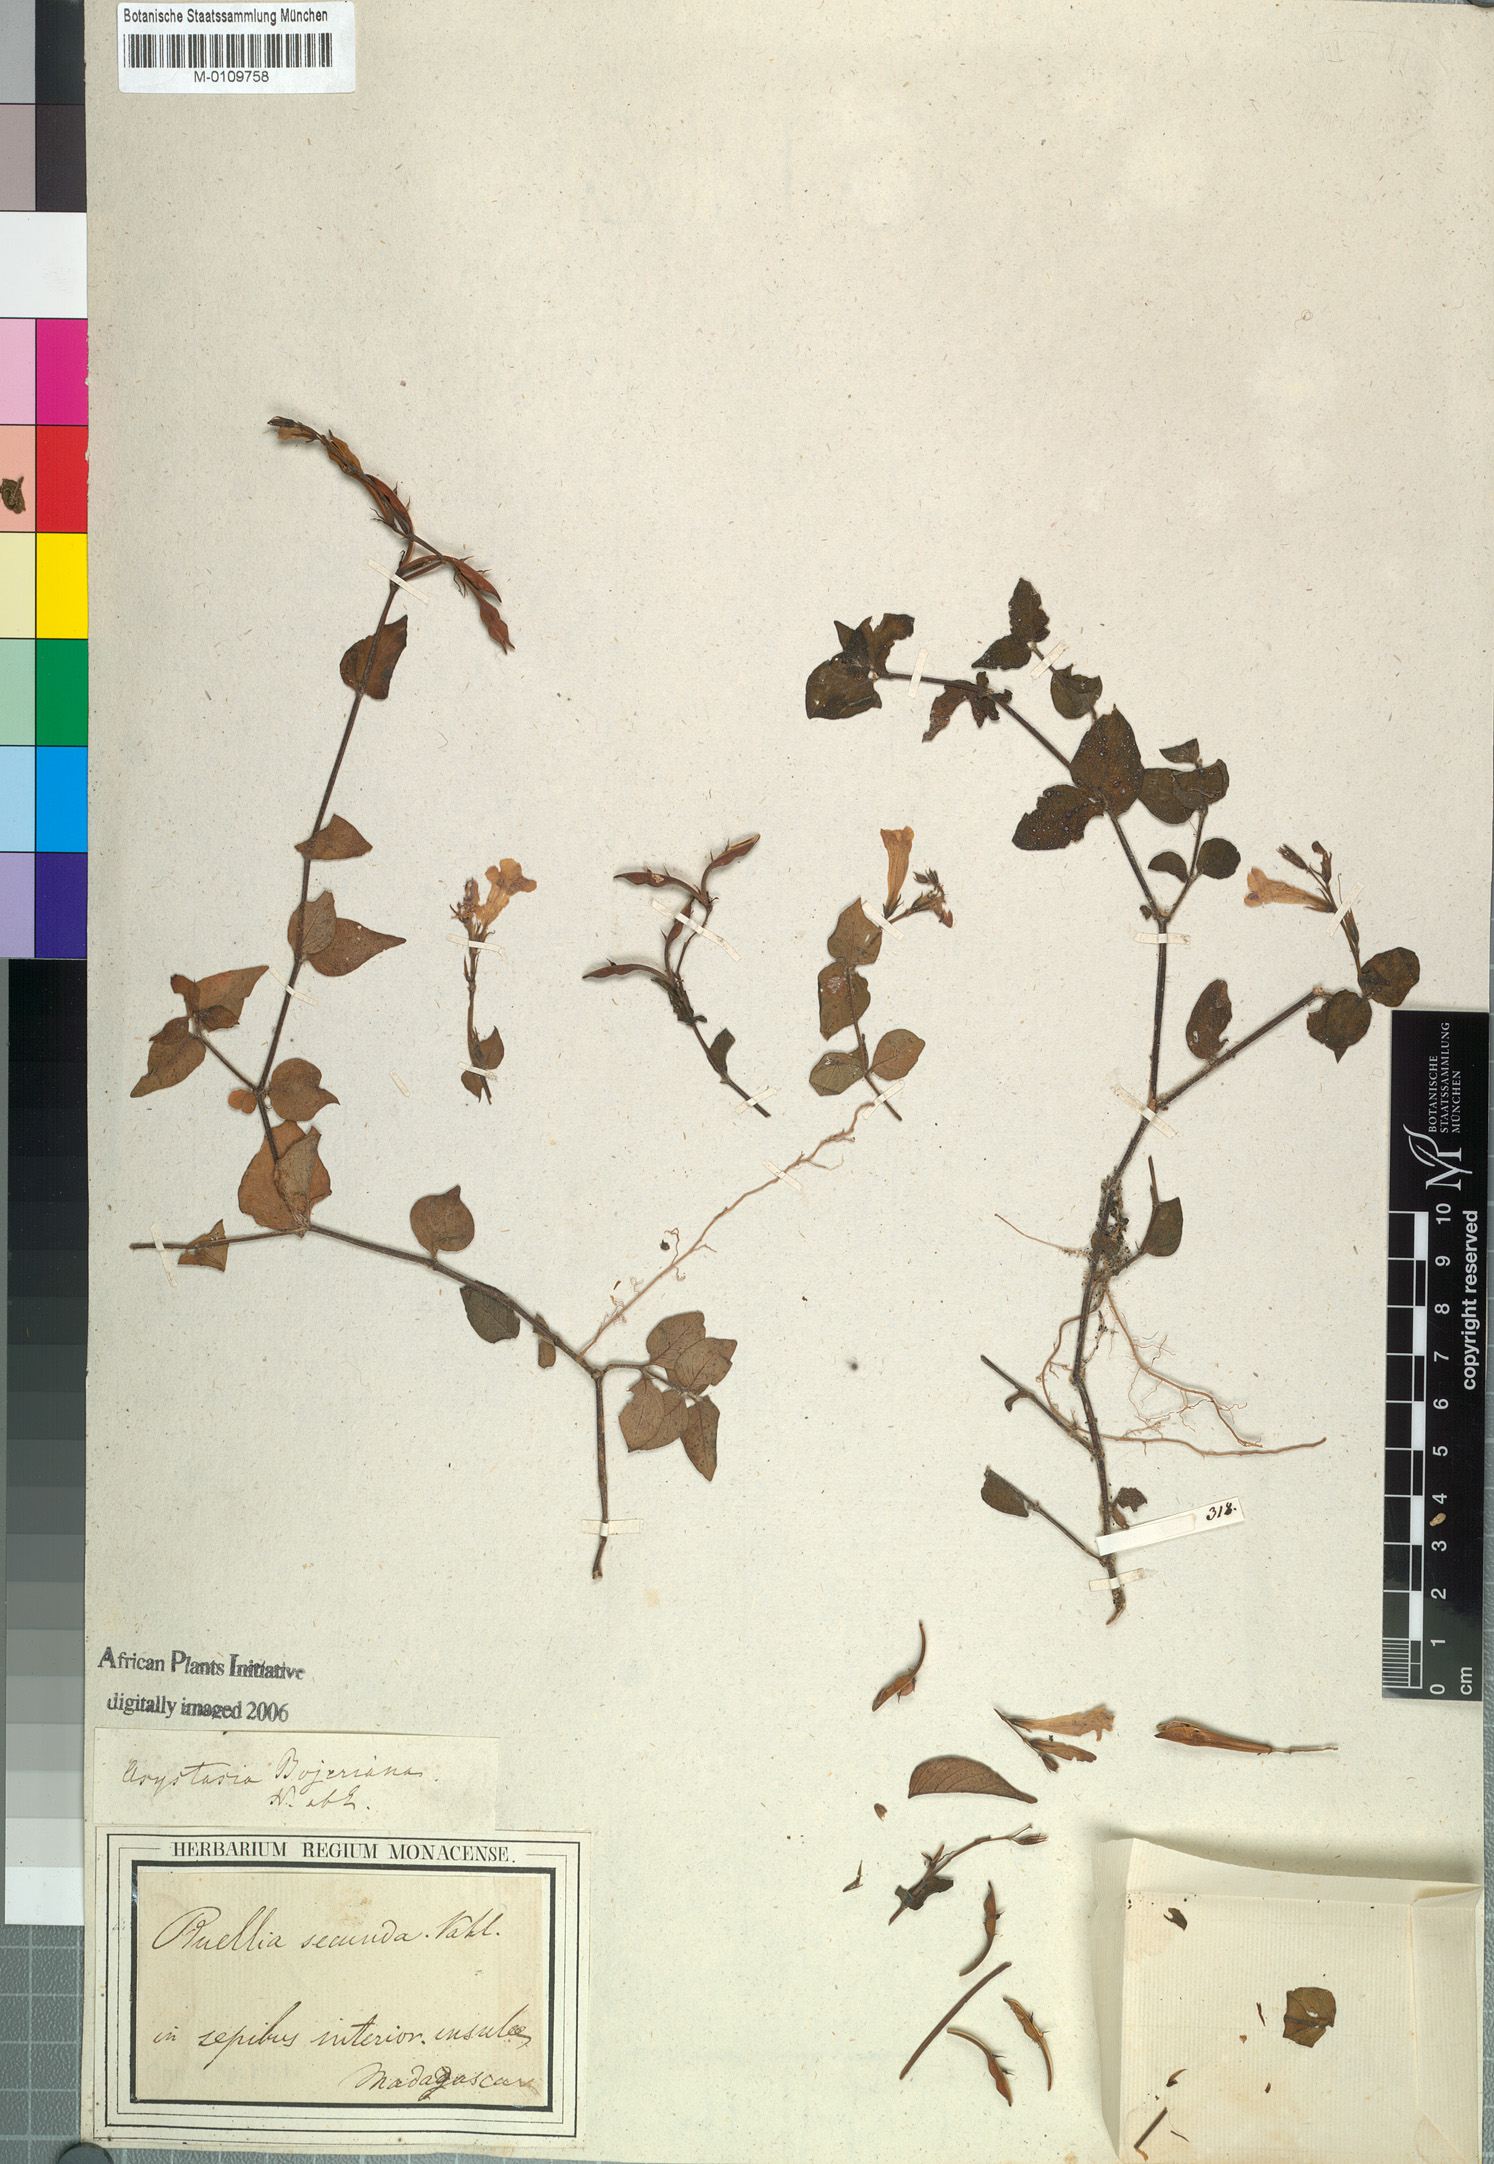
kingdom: Plantae
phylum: Tracheophyta
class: Magnoliopsida
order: Lamiales
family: Acanthaceae
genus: Asystasia
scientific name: Asystasia intrusa
